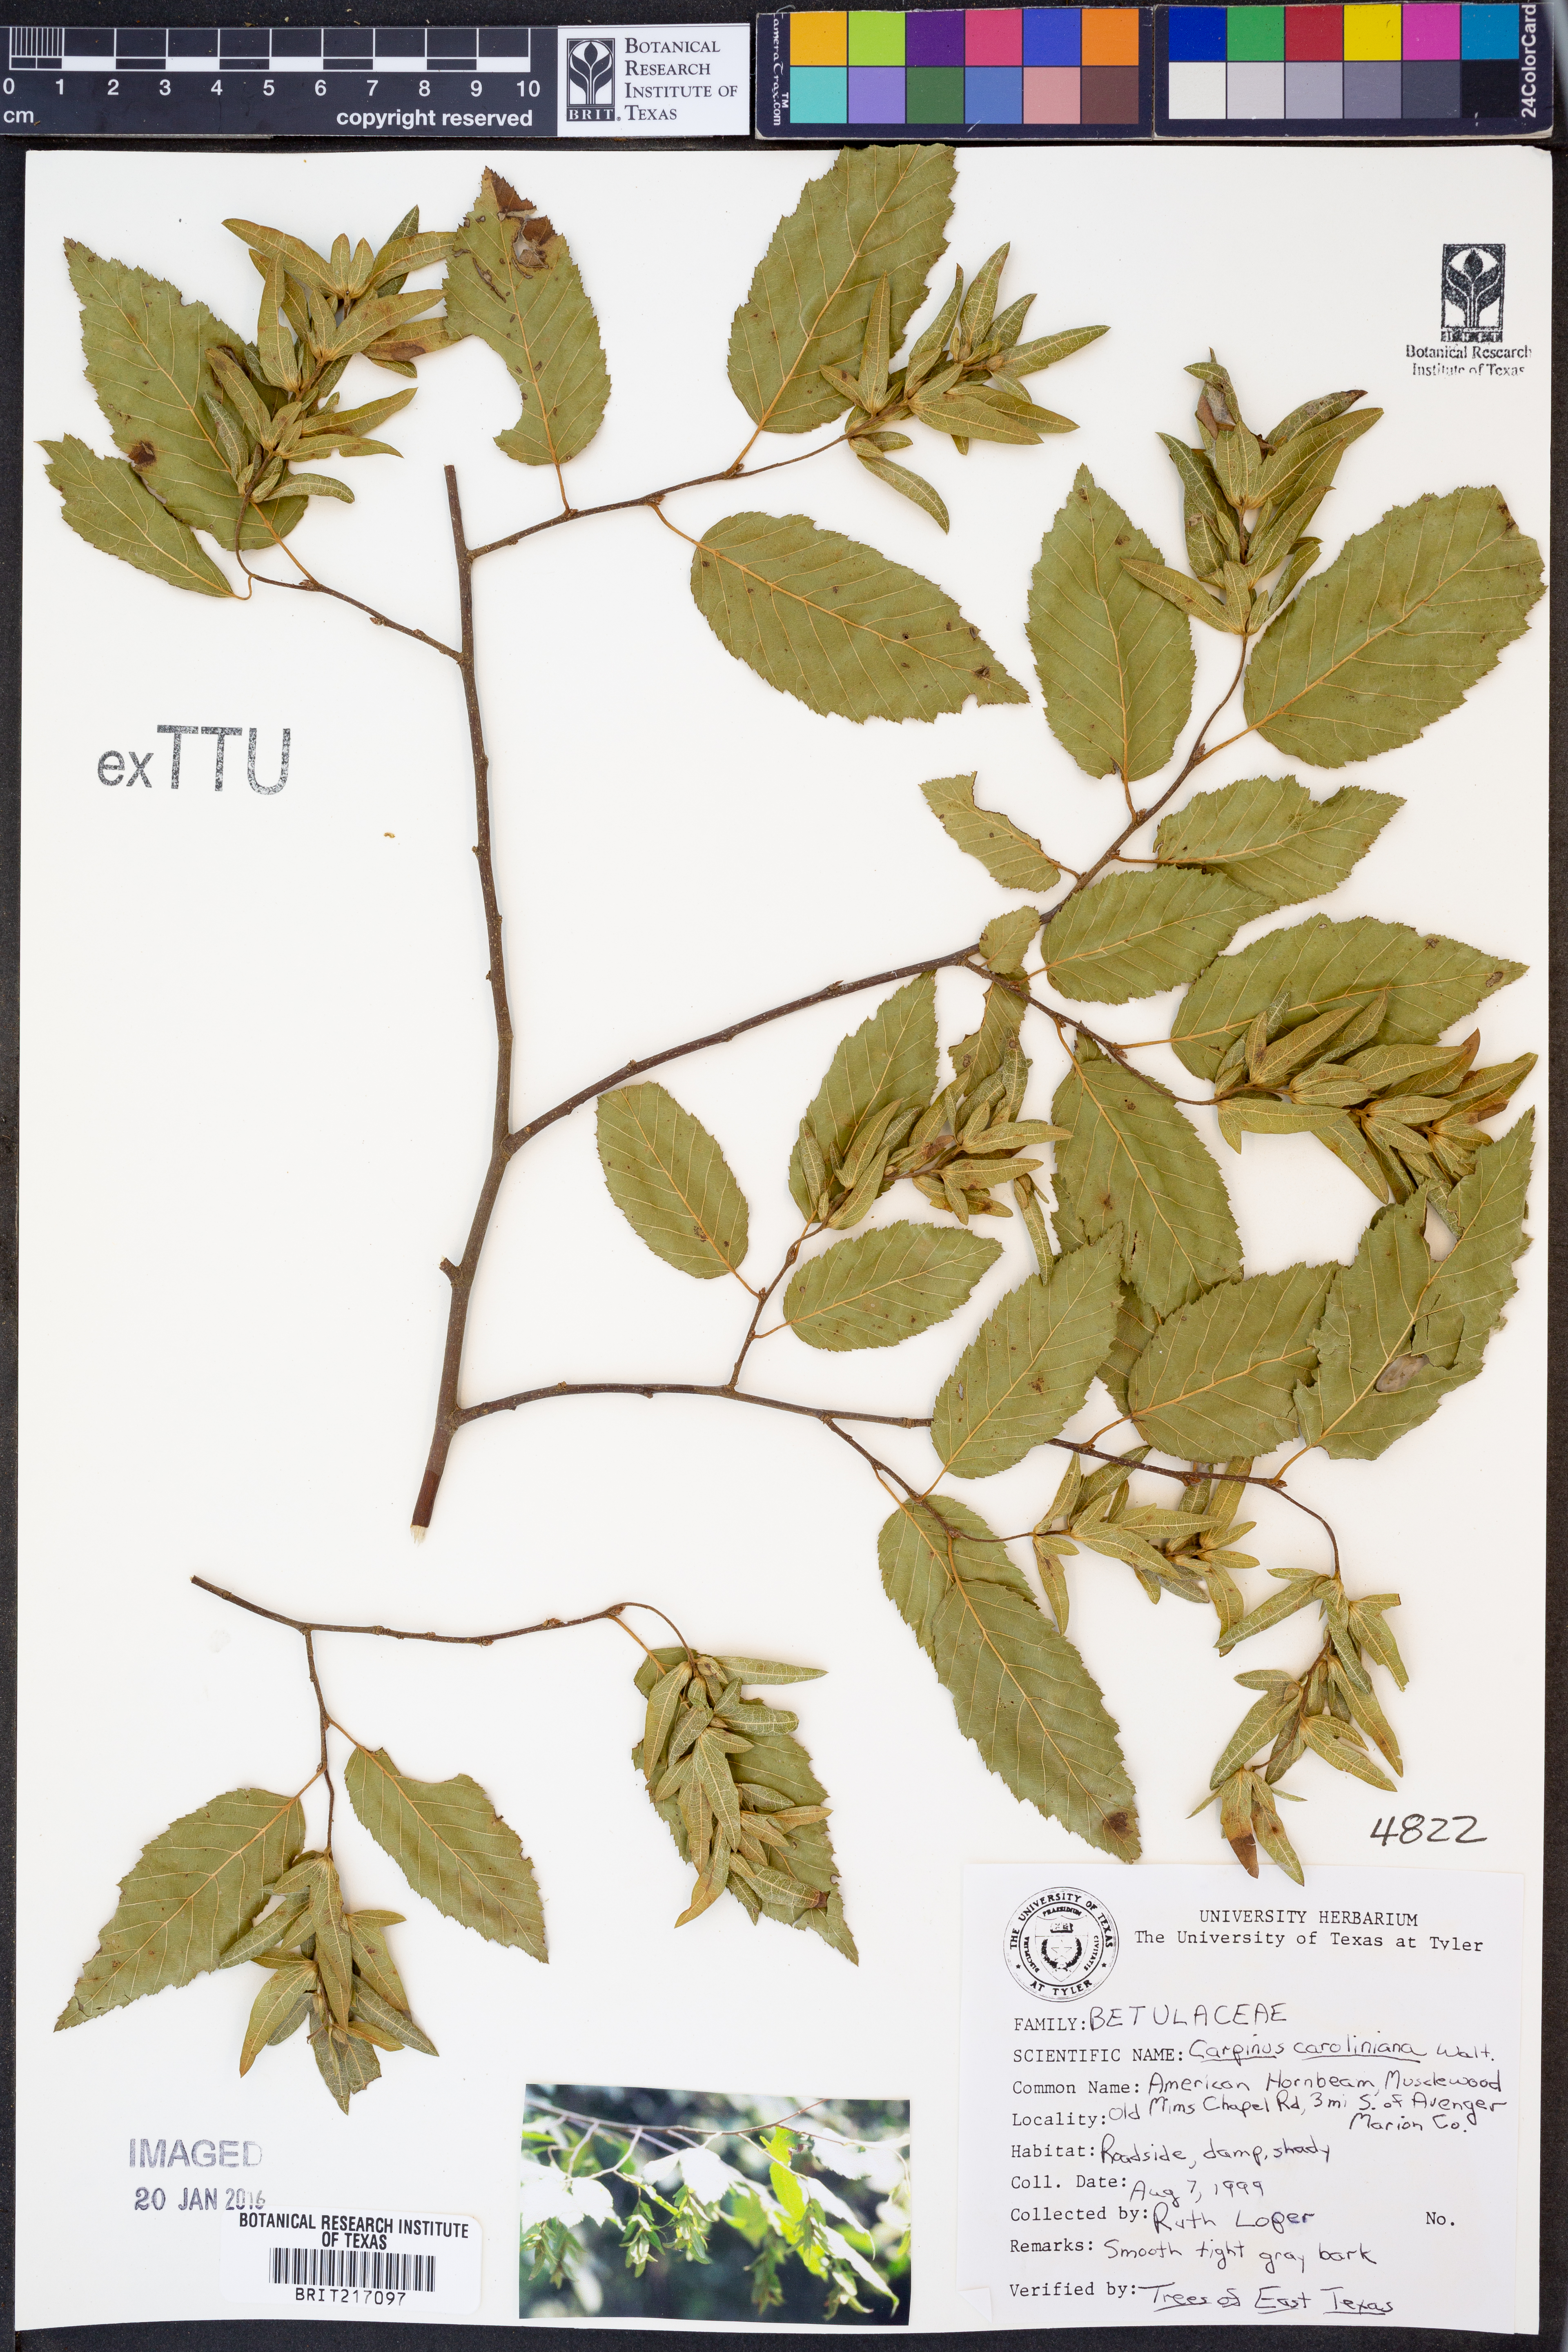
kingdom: Plantae
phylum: Tracheophyta
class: Magnoliopsida
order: Fagales
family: Betulaceae
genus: Carpinus
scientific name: Carpinus caroliniana
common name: American hornbeam
